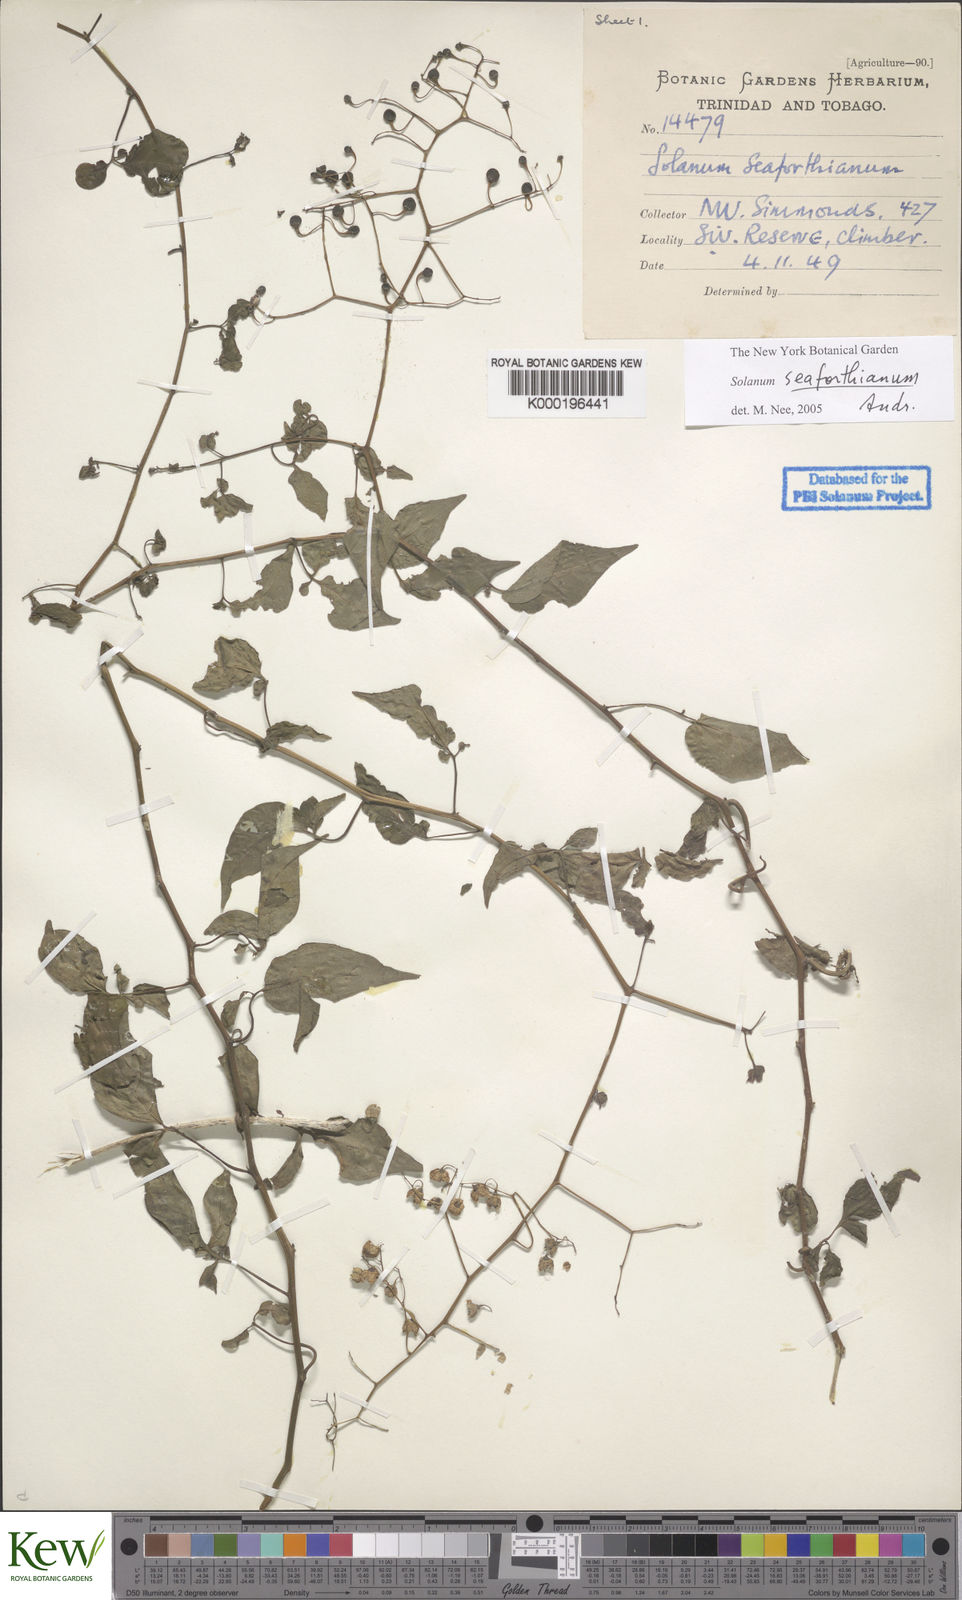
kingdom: Plantae
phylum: Tracheophyta
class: Magnoliopsida
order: Solanales
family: Solanaceae
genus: Solanum
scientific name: Solanum seaforthianum
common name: Brazilian nightshade
